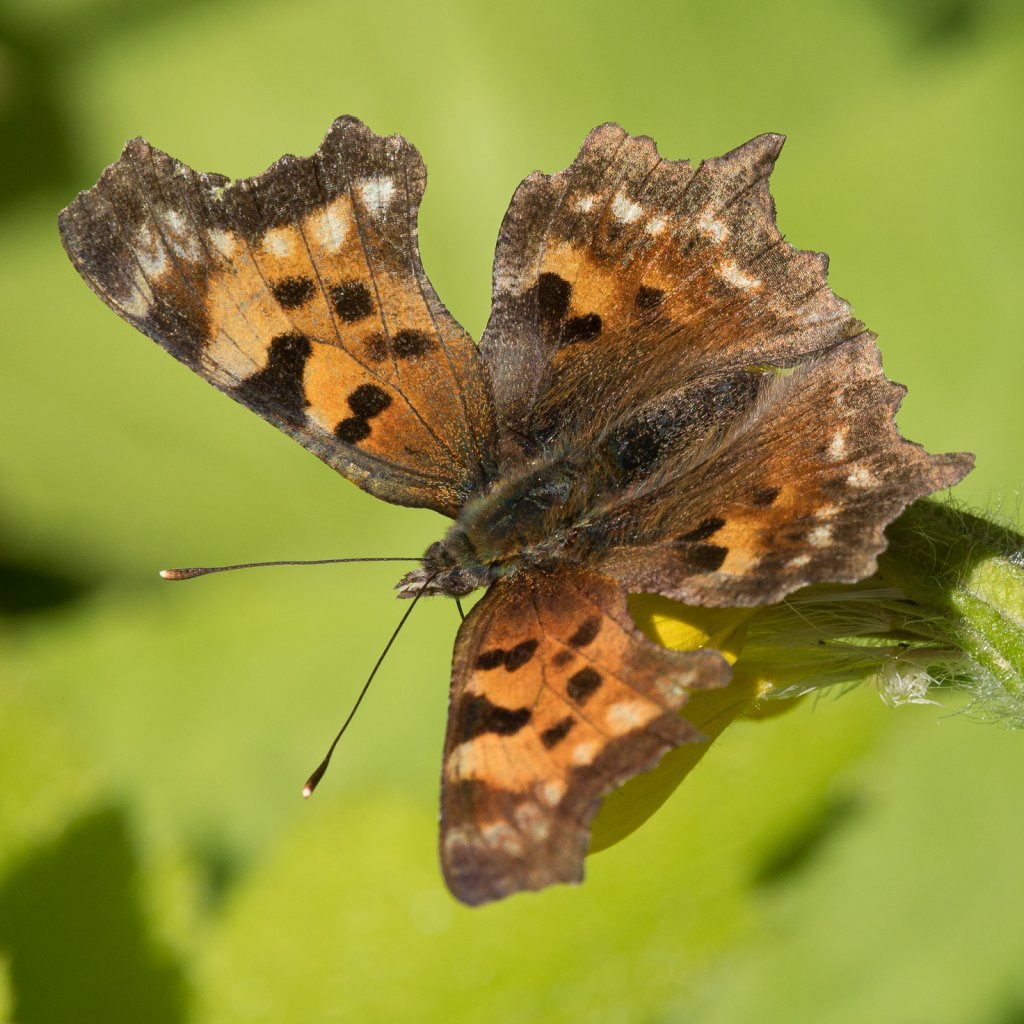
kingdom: Animalia
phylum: Arthropoda
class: Insecta
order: Lepidoptera
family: Nymphalidae
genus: Polygonia
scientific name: Polygonia faunus
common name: Green Comma
